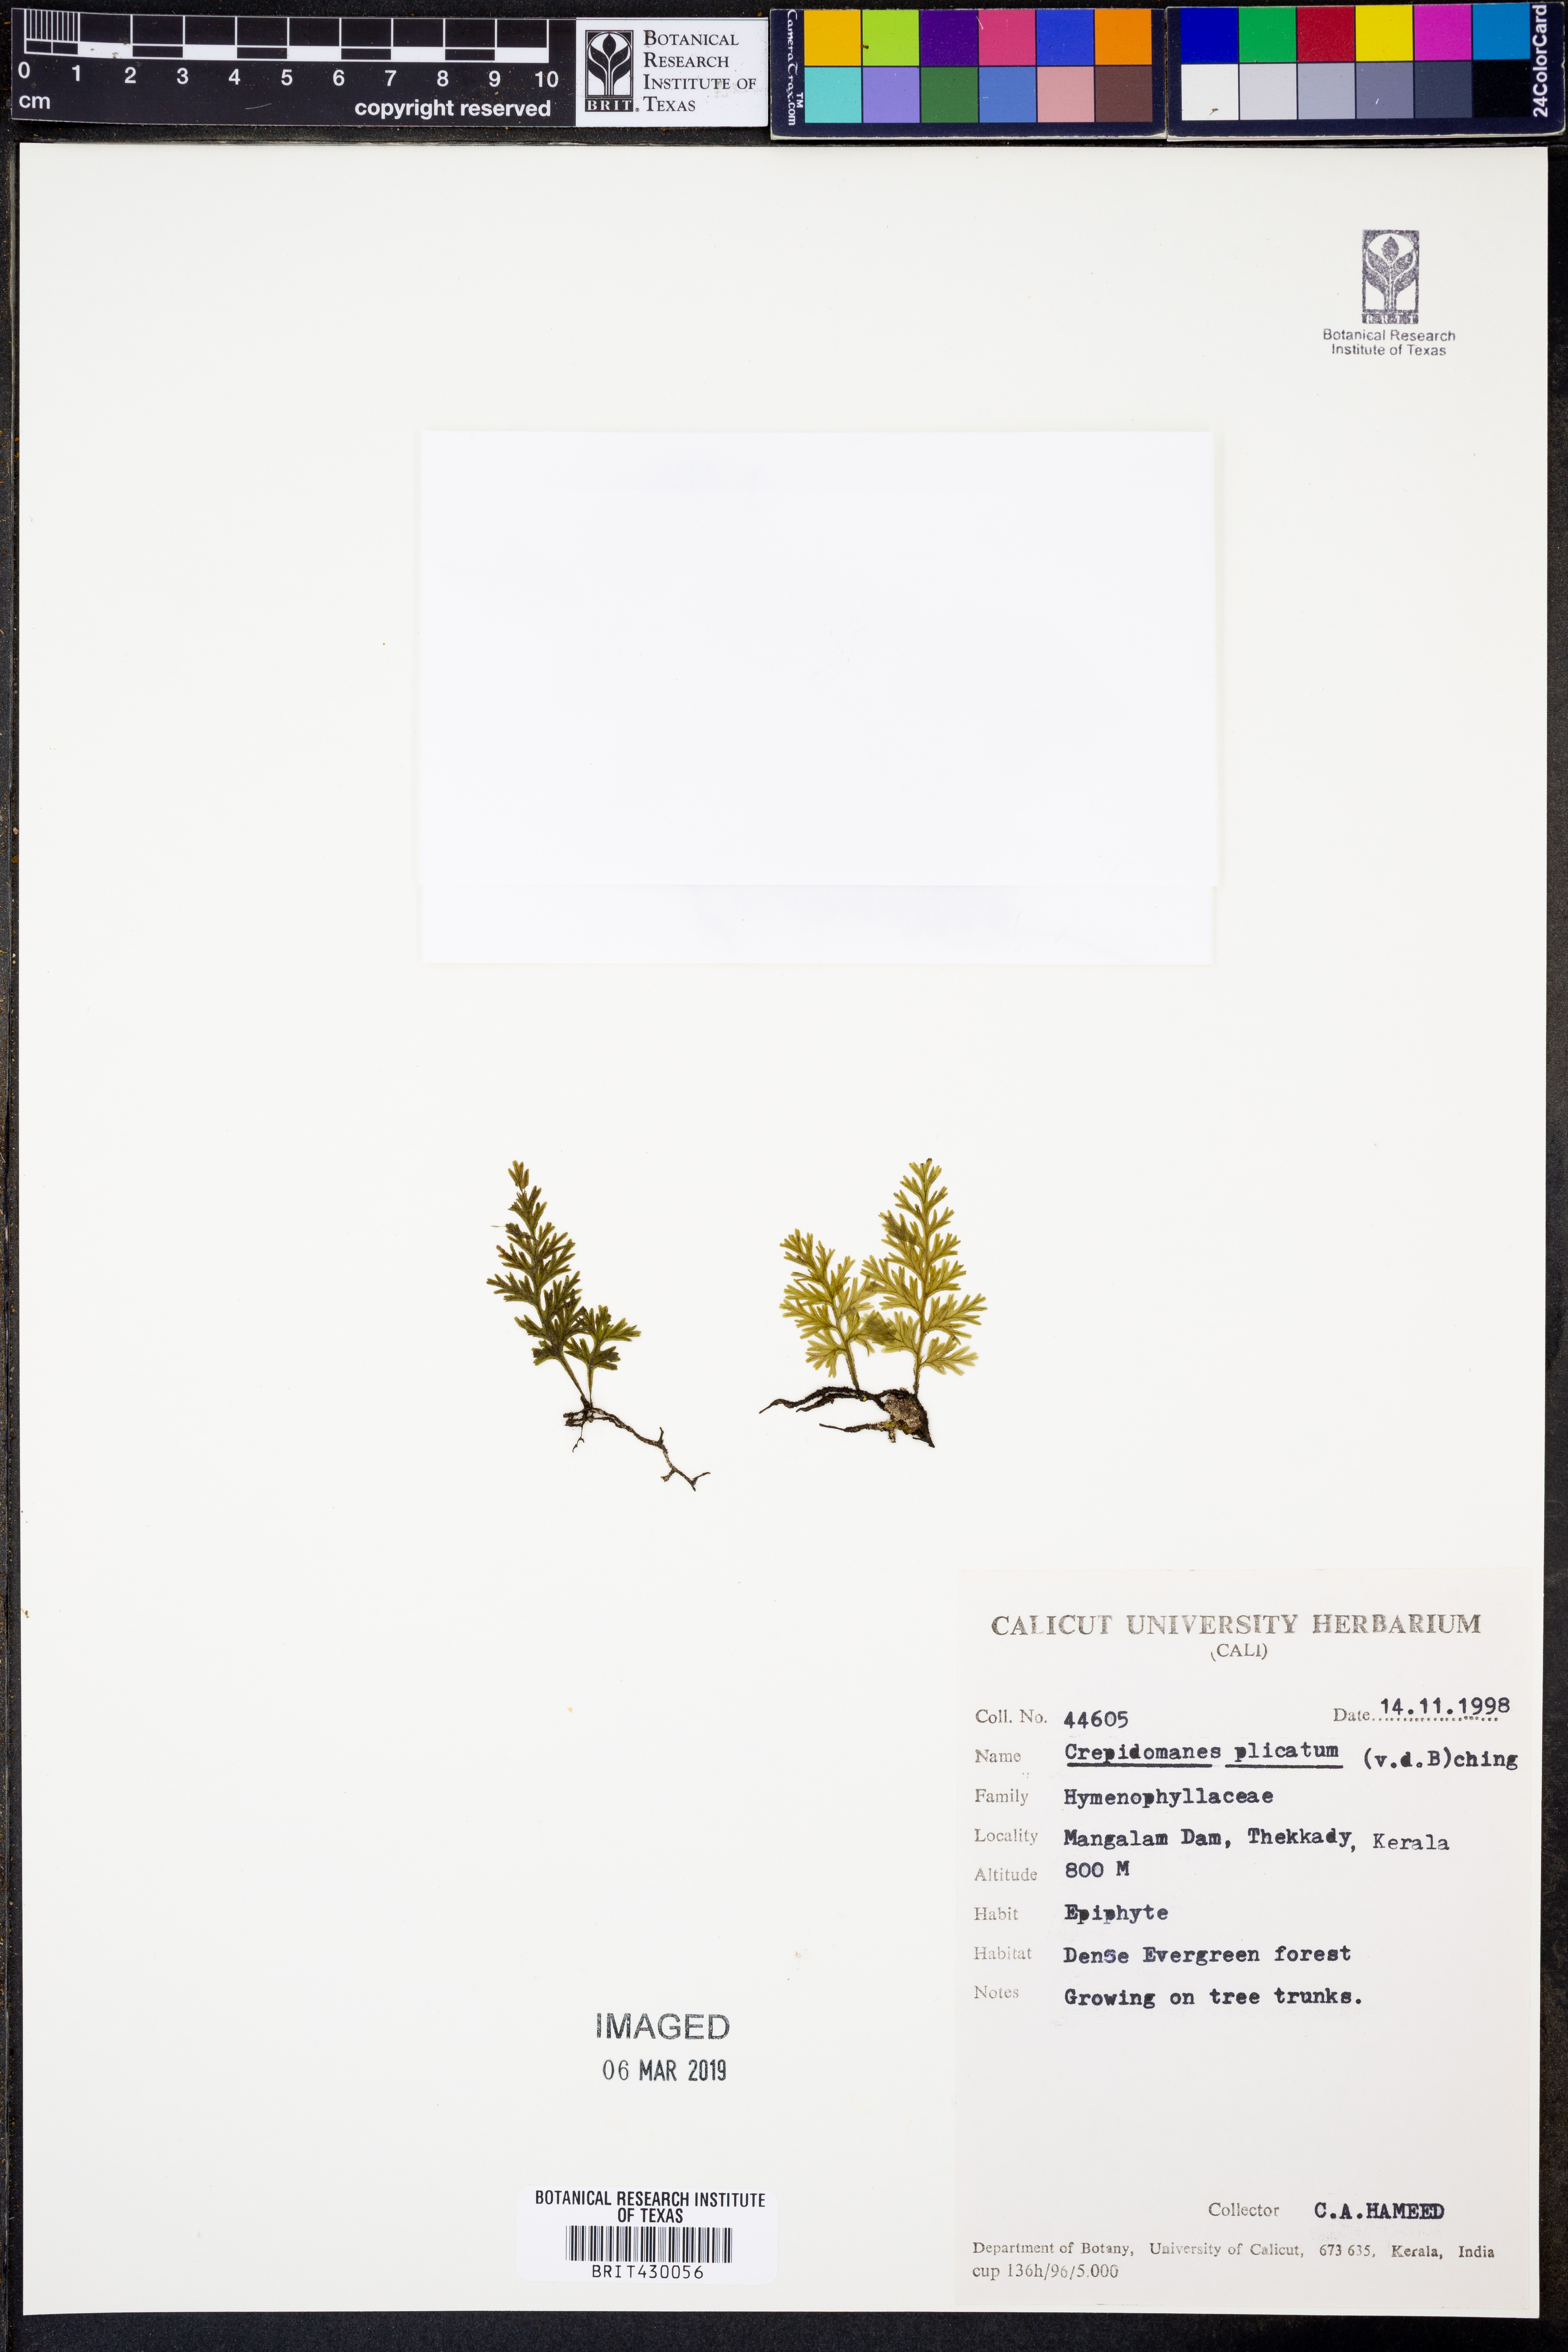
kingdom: Plantae
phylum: Tracheophyta
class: Polypodiopsida
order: Hymenophyllales
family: Hymenophyllaceae
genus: Crepidomanes
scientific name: Crepidomanes campanulatum
